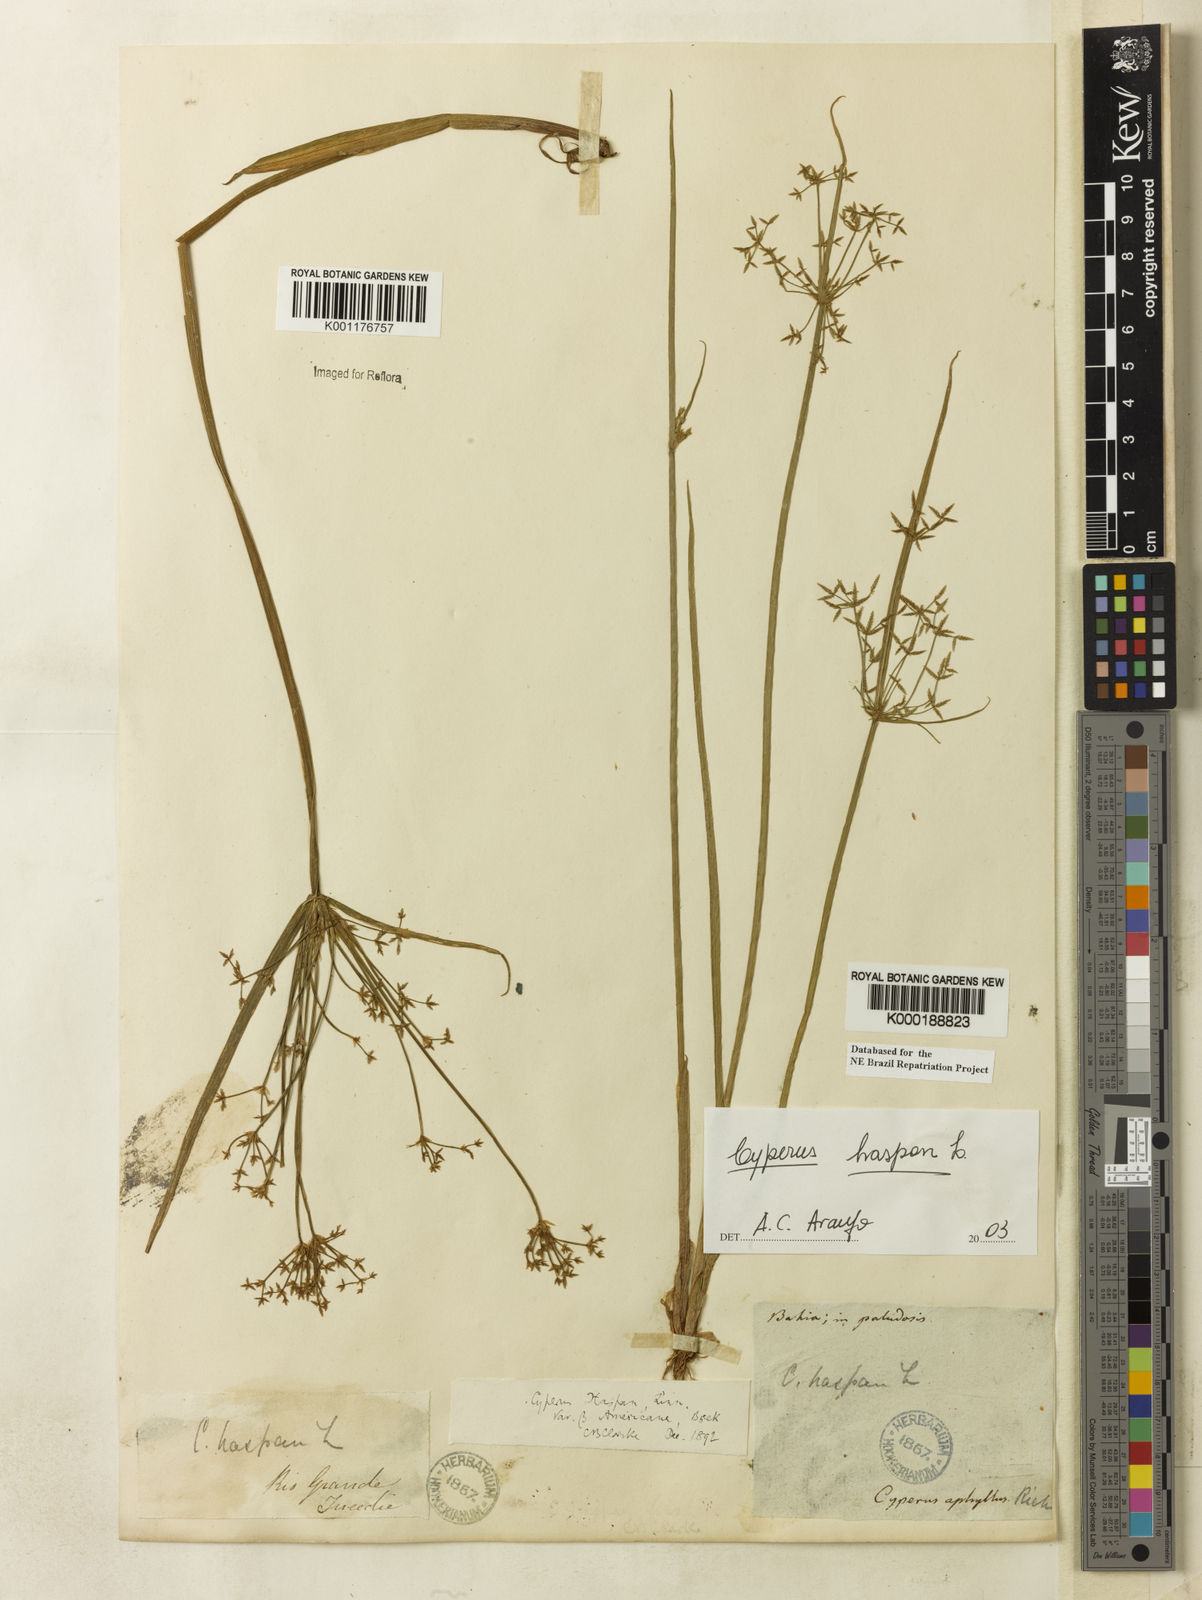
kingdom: Plantae
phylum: Tracheophyta
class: Liliopsida
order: Poales
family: Cyperaceae
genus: Cyperus
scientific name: Cyperus haspan
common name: Haspan flatsedge
